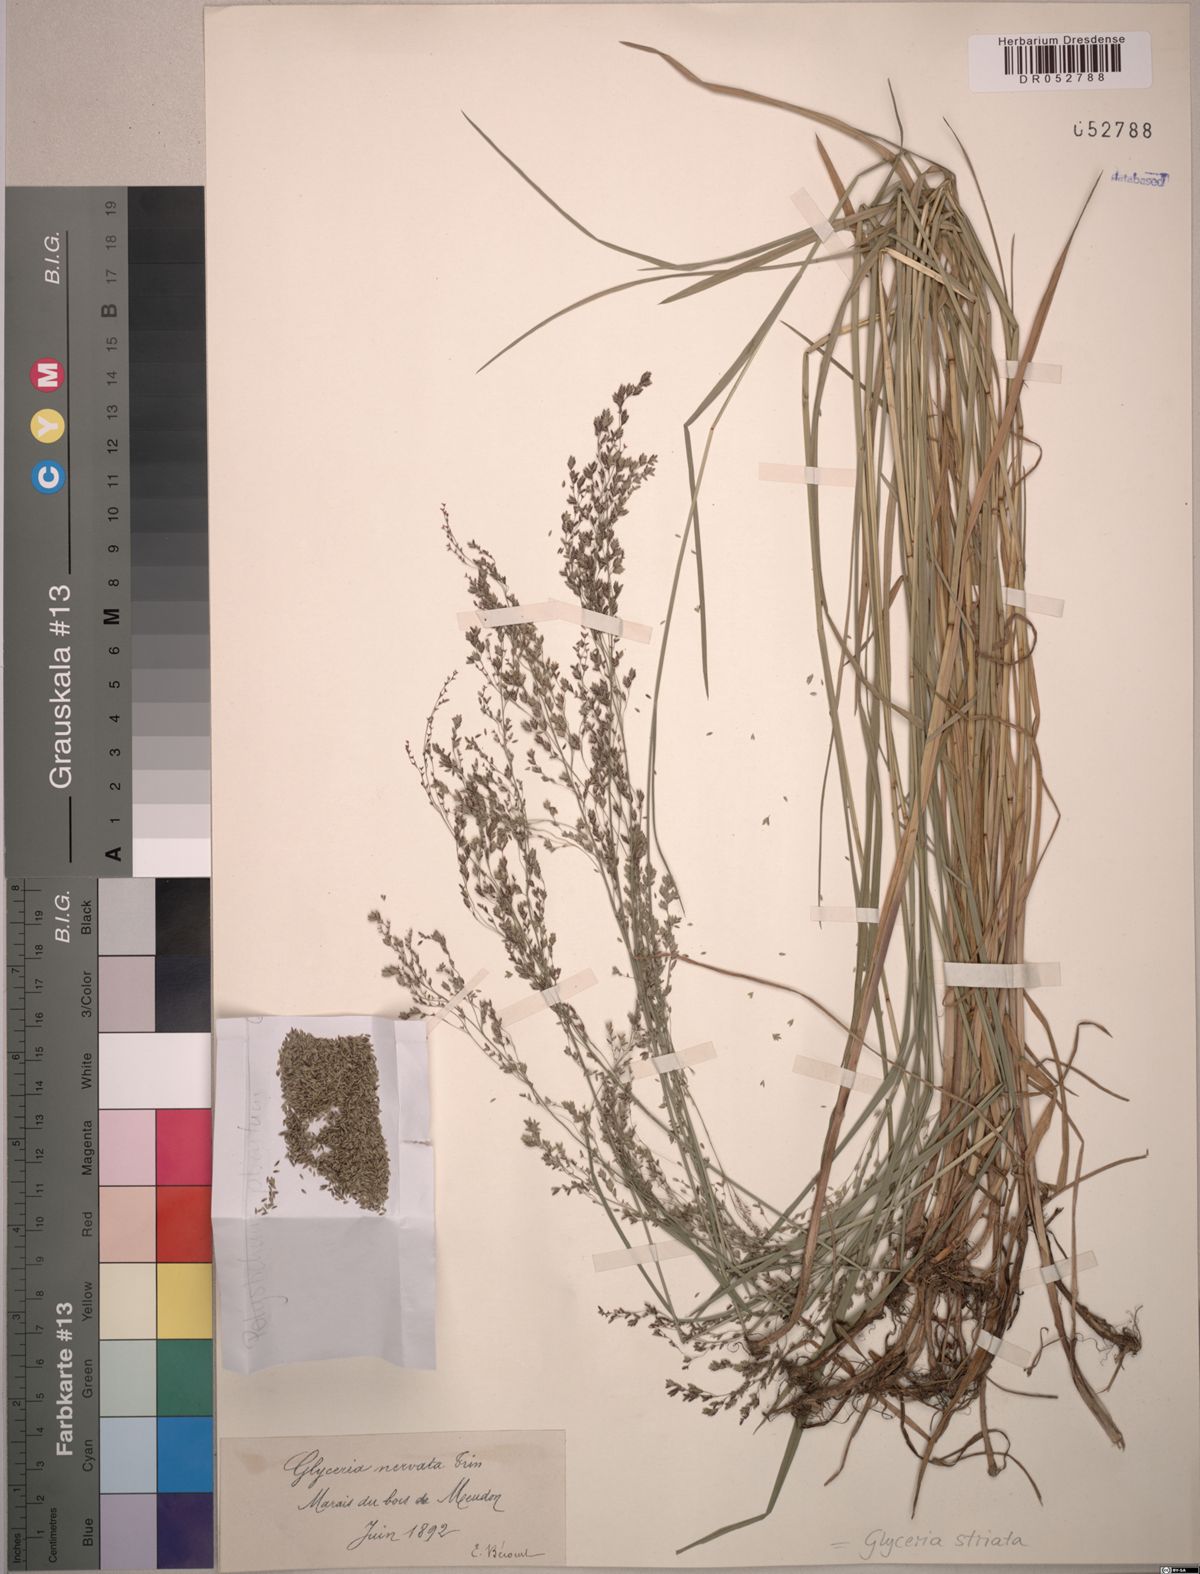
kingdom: Plantae
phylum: Tracheophyta
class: Liliopsida
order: Poales
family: Poaceae
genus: Glyceria
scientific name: Glyceria striata
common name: Fowl manna grass
